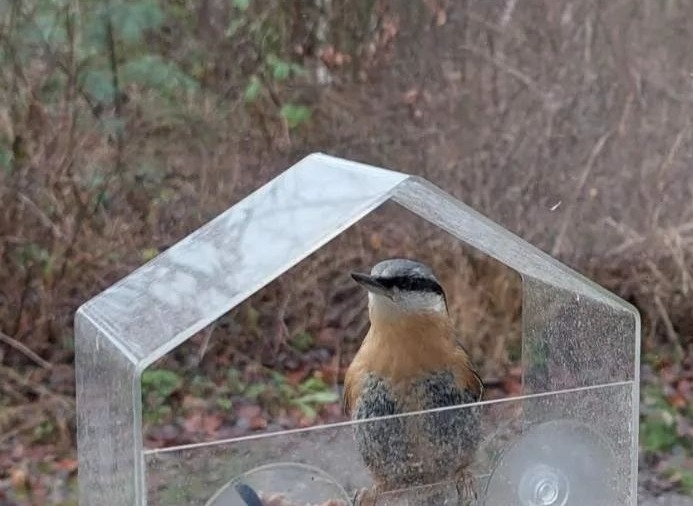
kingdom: Animalia
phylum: Chordata
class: Aves
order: Passeriformes
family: Sittidae
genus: Sitta
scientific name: Sitta europaea
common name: Spætmejse
